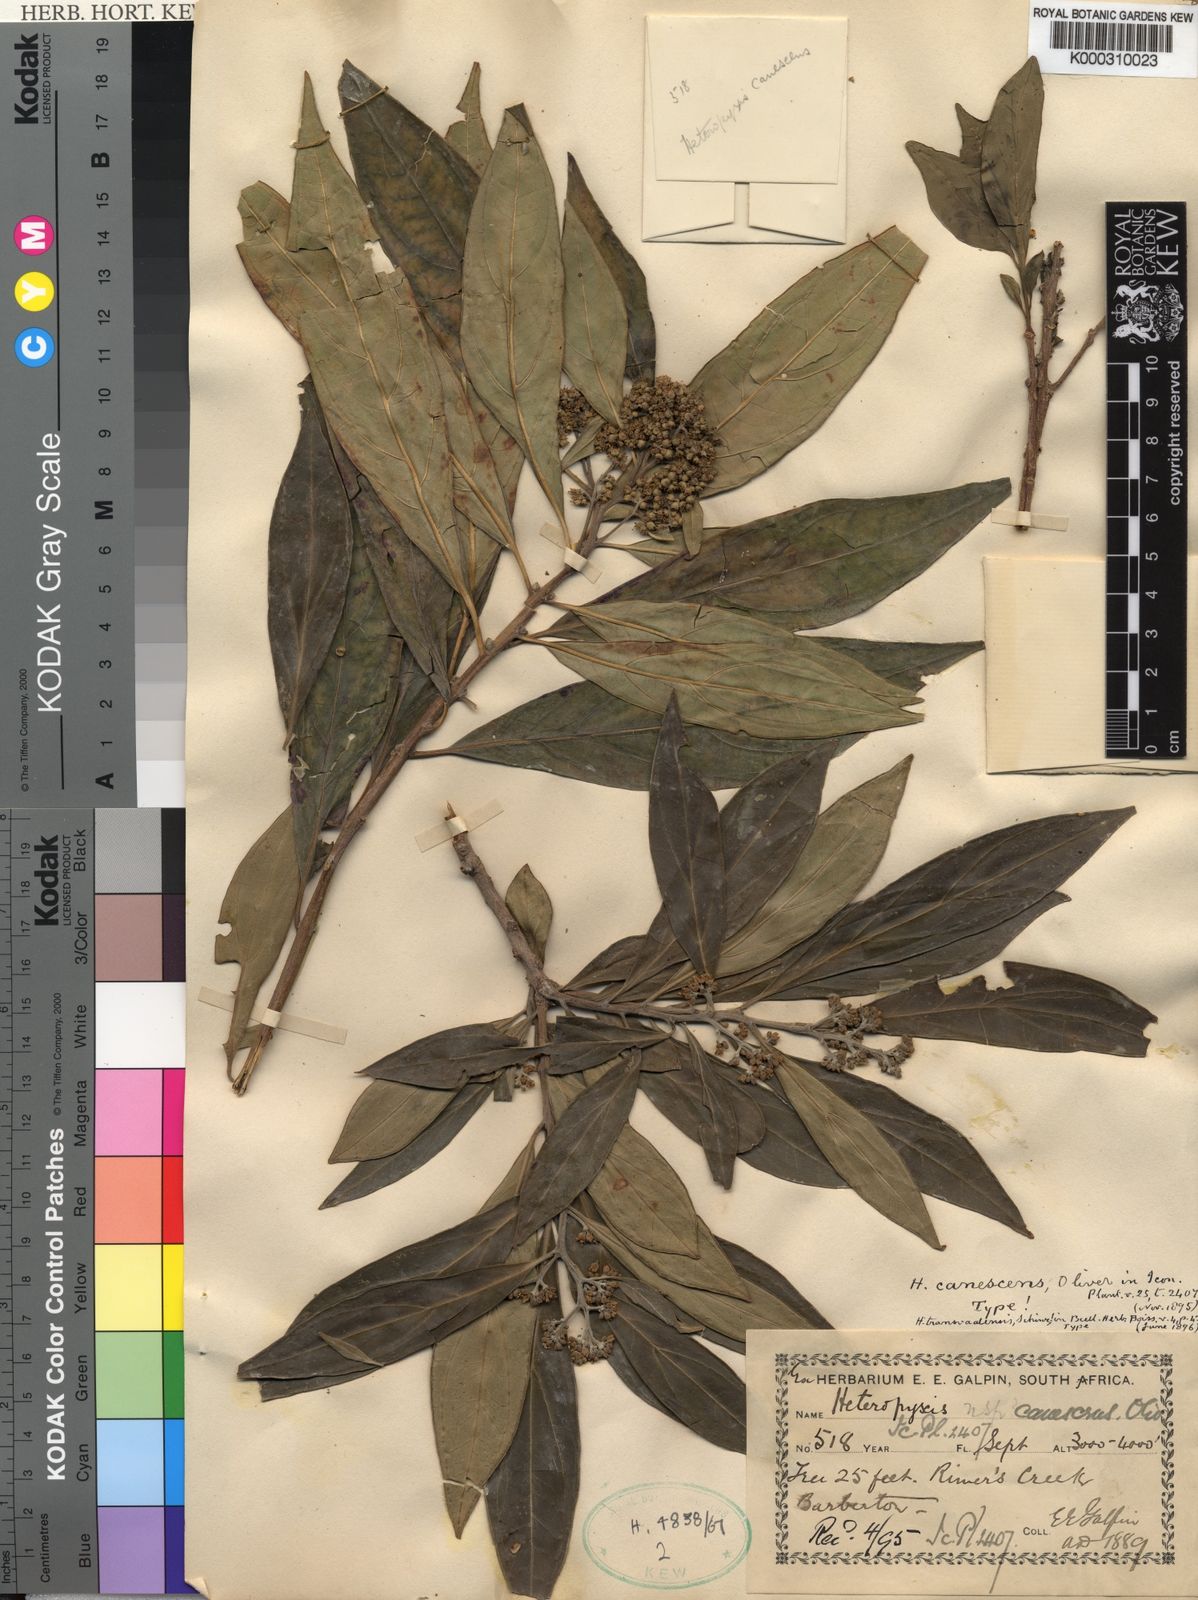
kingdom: Plantae
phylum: Tracheophyta
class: Magnoliopsida
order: Myrtales
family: Myrtaceae
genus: Heteropyxis
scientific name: Heteropyxis canescens
